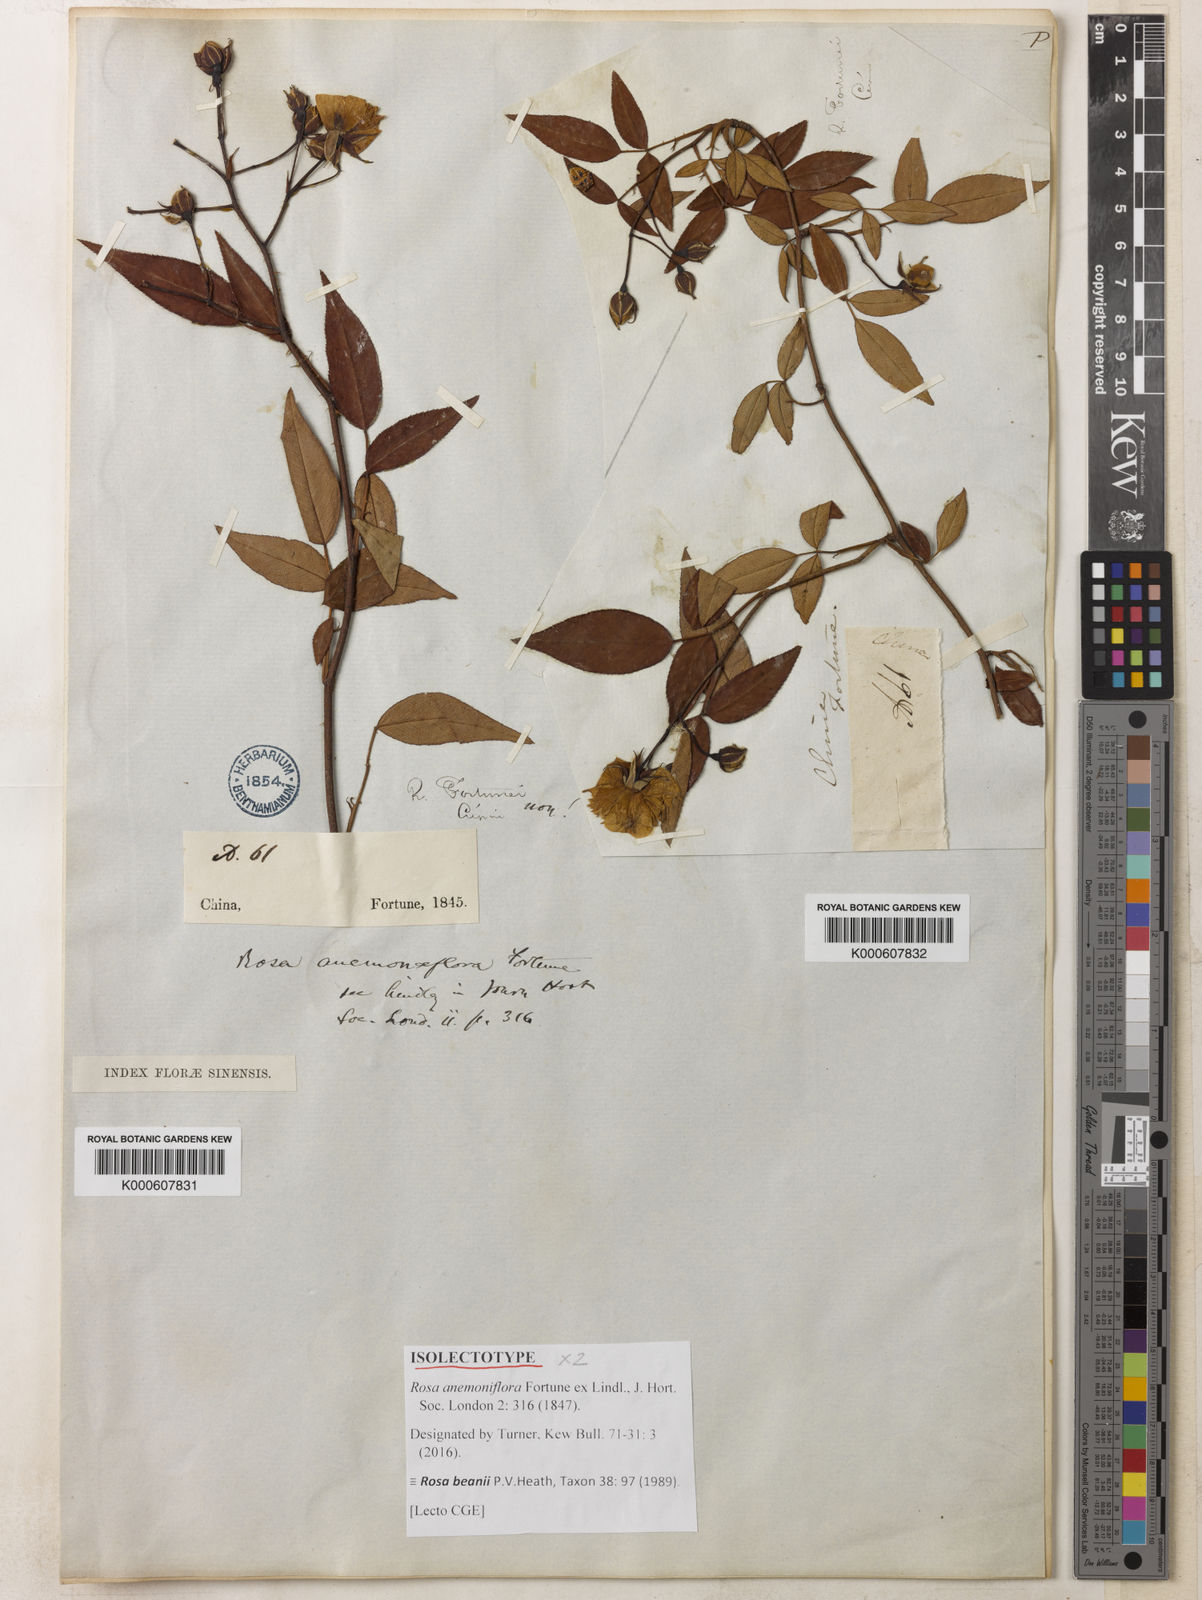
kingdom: Plantae
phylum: Tracheophyta
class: Magnoliopsida
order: Rosales
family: Rosaceae
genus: Rosa
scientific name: Rosa barbeyi
